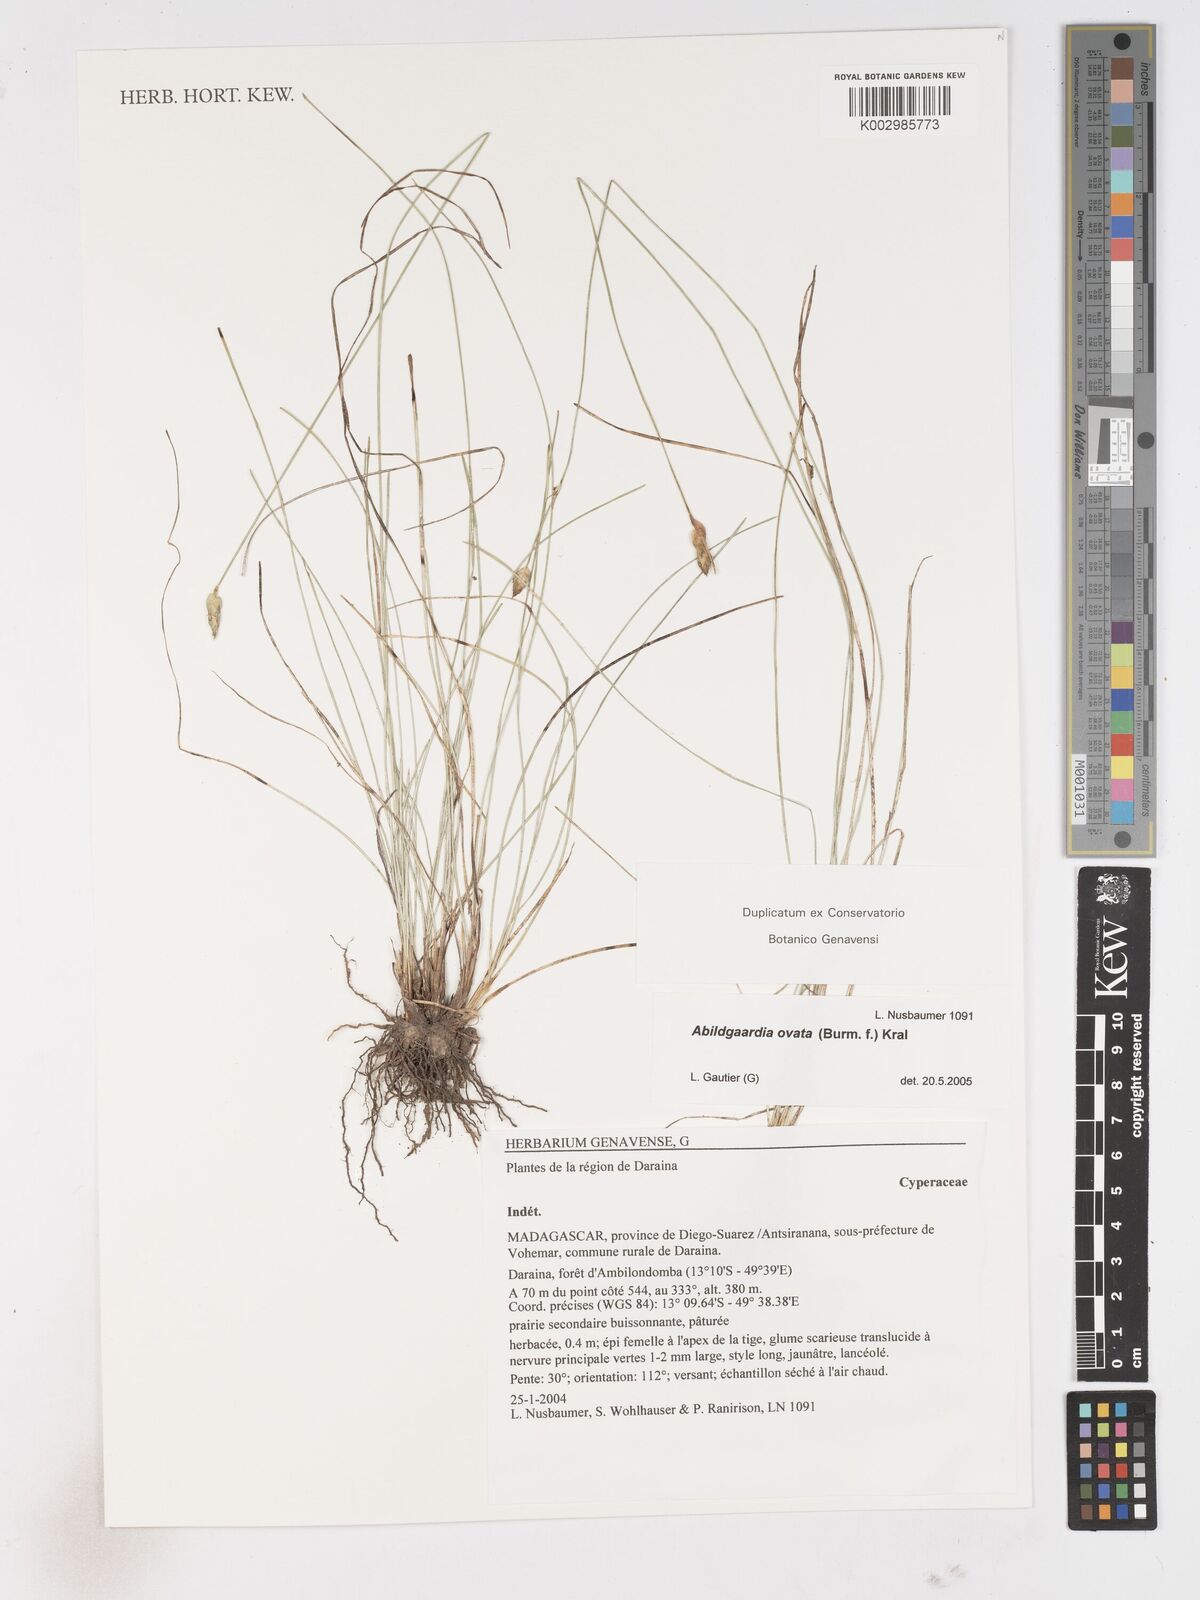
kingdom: Plantae
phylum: Tracheophyta
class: Liliopsida
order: Poales
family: Cyperaceae
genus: Abildgaardia
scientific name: Abildgaardia ovata
